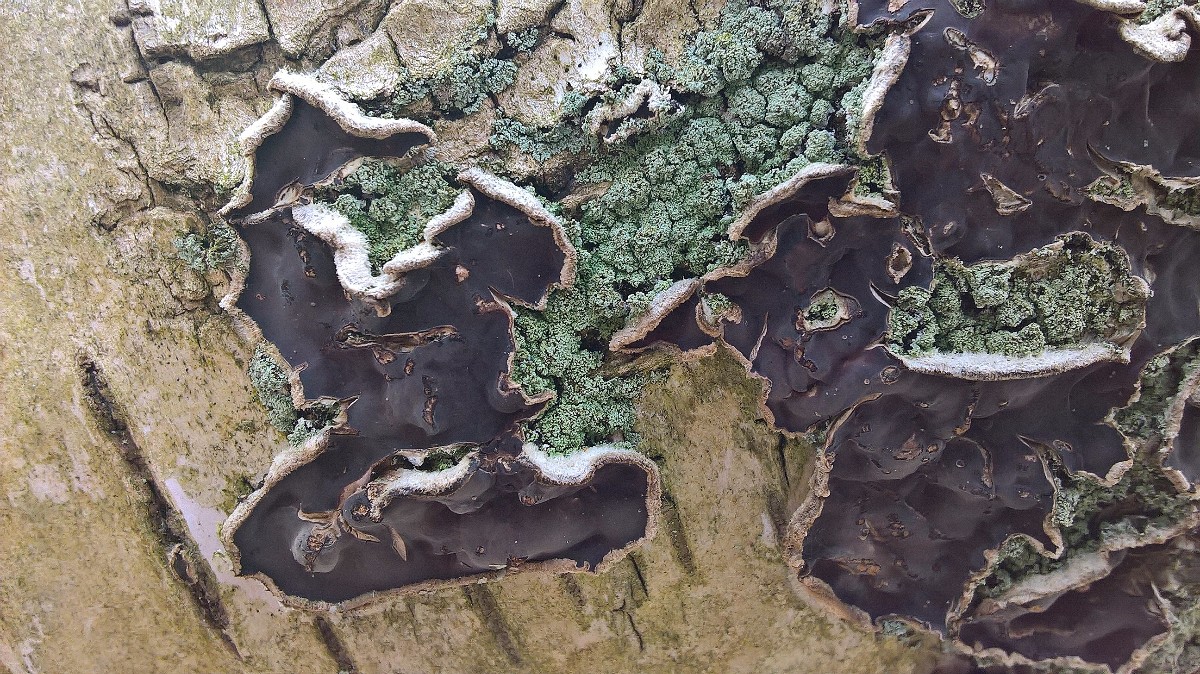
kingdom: Fungi
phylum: Basidiomycota
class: Agaricomycetes
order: Agaricales
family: Cyphellaceae
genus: Chondrostereum
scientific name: Chondrostereum purpureum
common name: purpurlædersvamp
